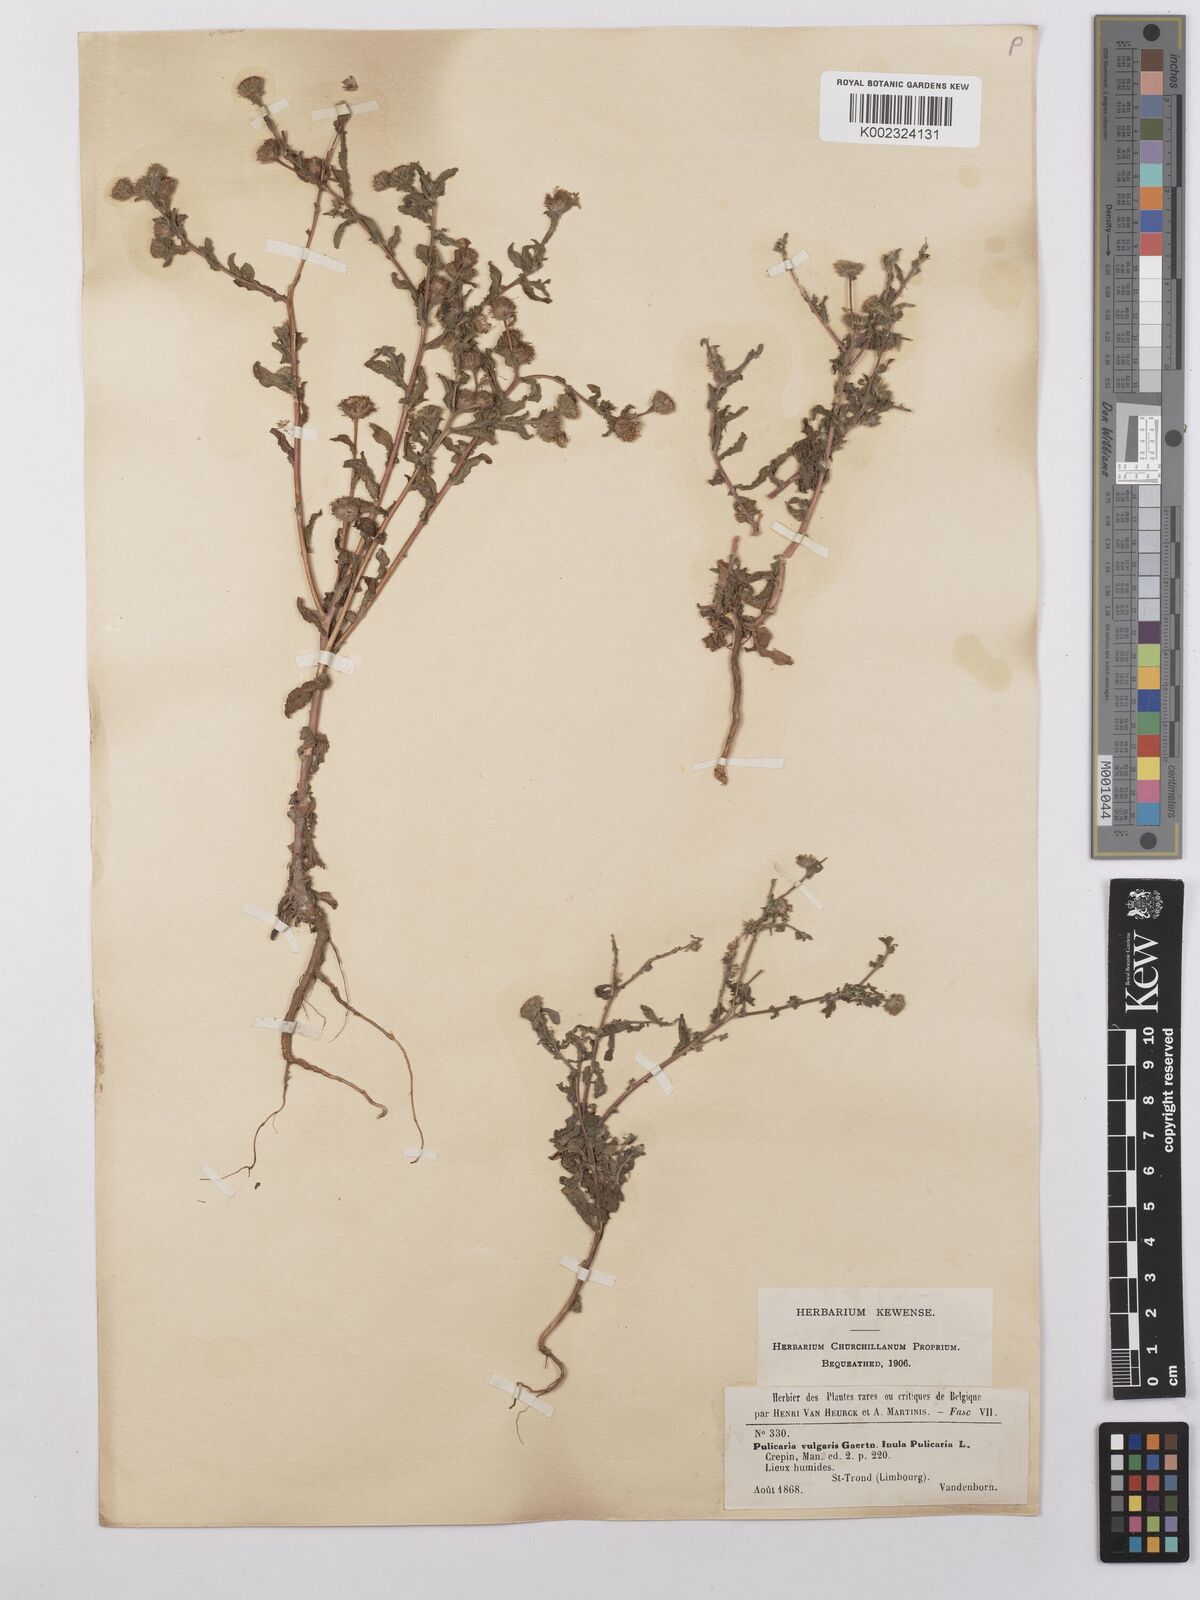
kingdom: Plantae
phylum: Tracheophyta
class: Magnoliopsida
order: Asterales
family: Asteraceae
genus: Pulicaria
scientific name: Pulicaria vulgaris
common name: Small fleabane
